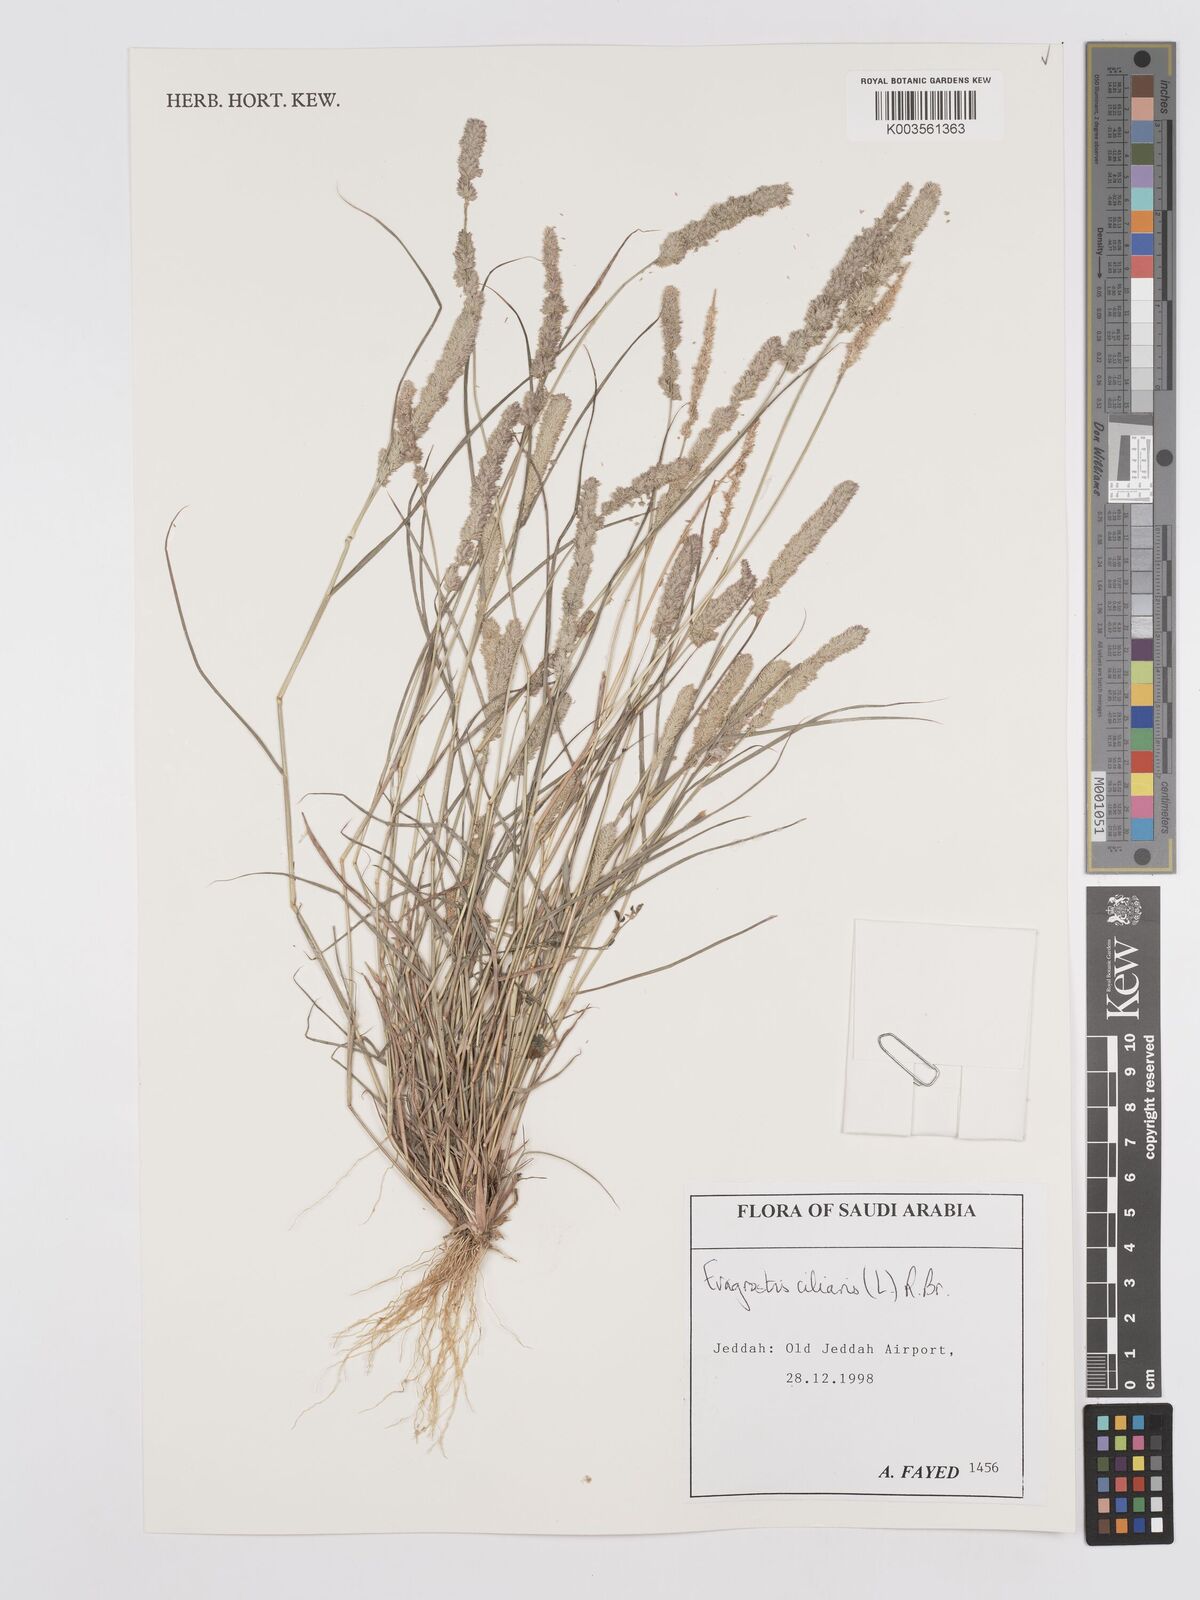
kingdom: Plantae
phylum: Tracheophyta
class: Liliopsida
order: Poales
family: Poaceae
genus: Eragrostis
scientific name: Eragrostis ciliaris
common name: Gophertail lovegrass
